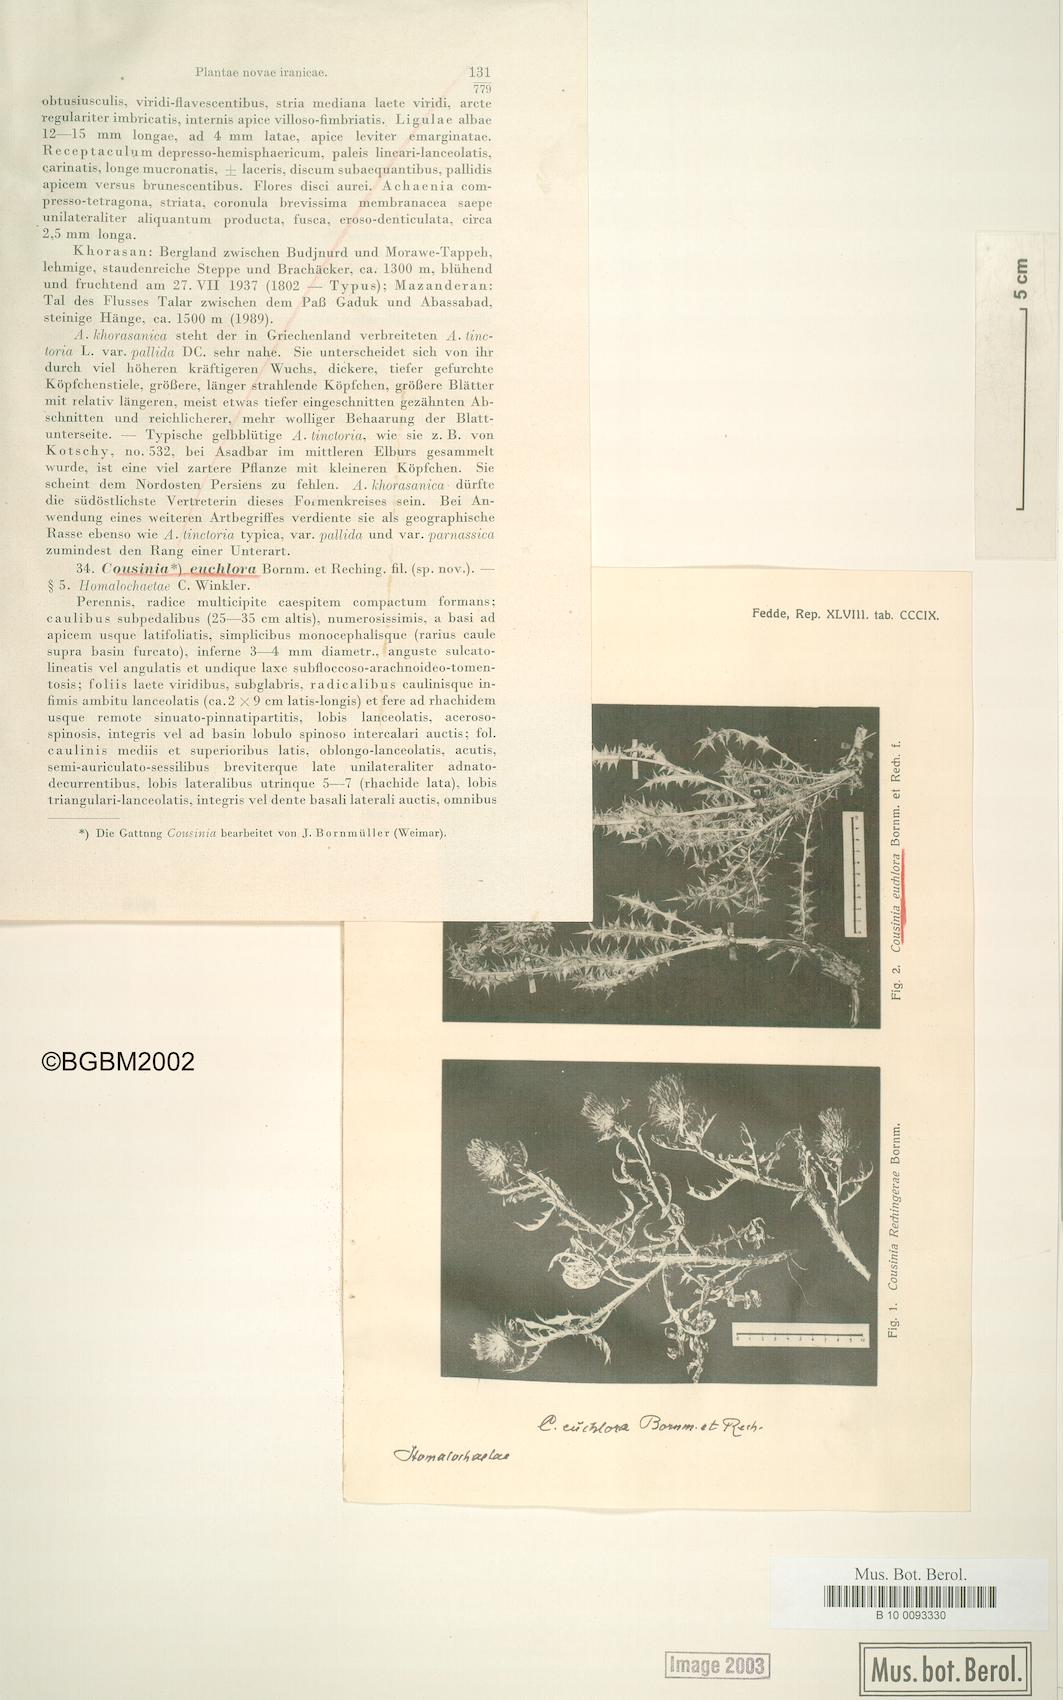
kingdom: Plantae
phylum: Tracheophyta
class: Magnoliopsida
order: Asterales
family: Asteraceae
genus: Cousinia
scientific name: Cousinia euchlora
